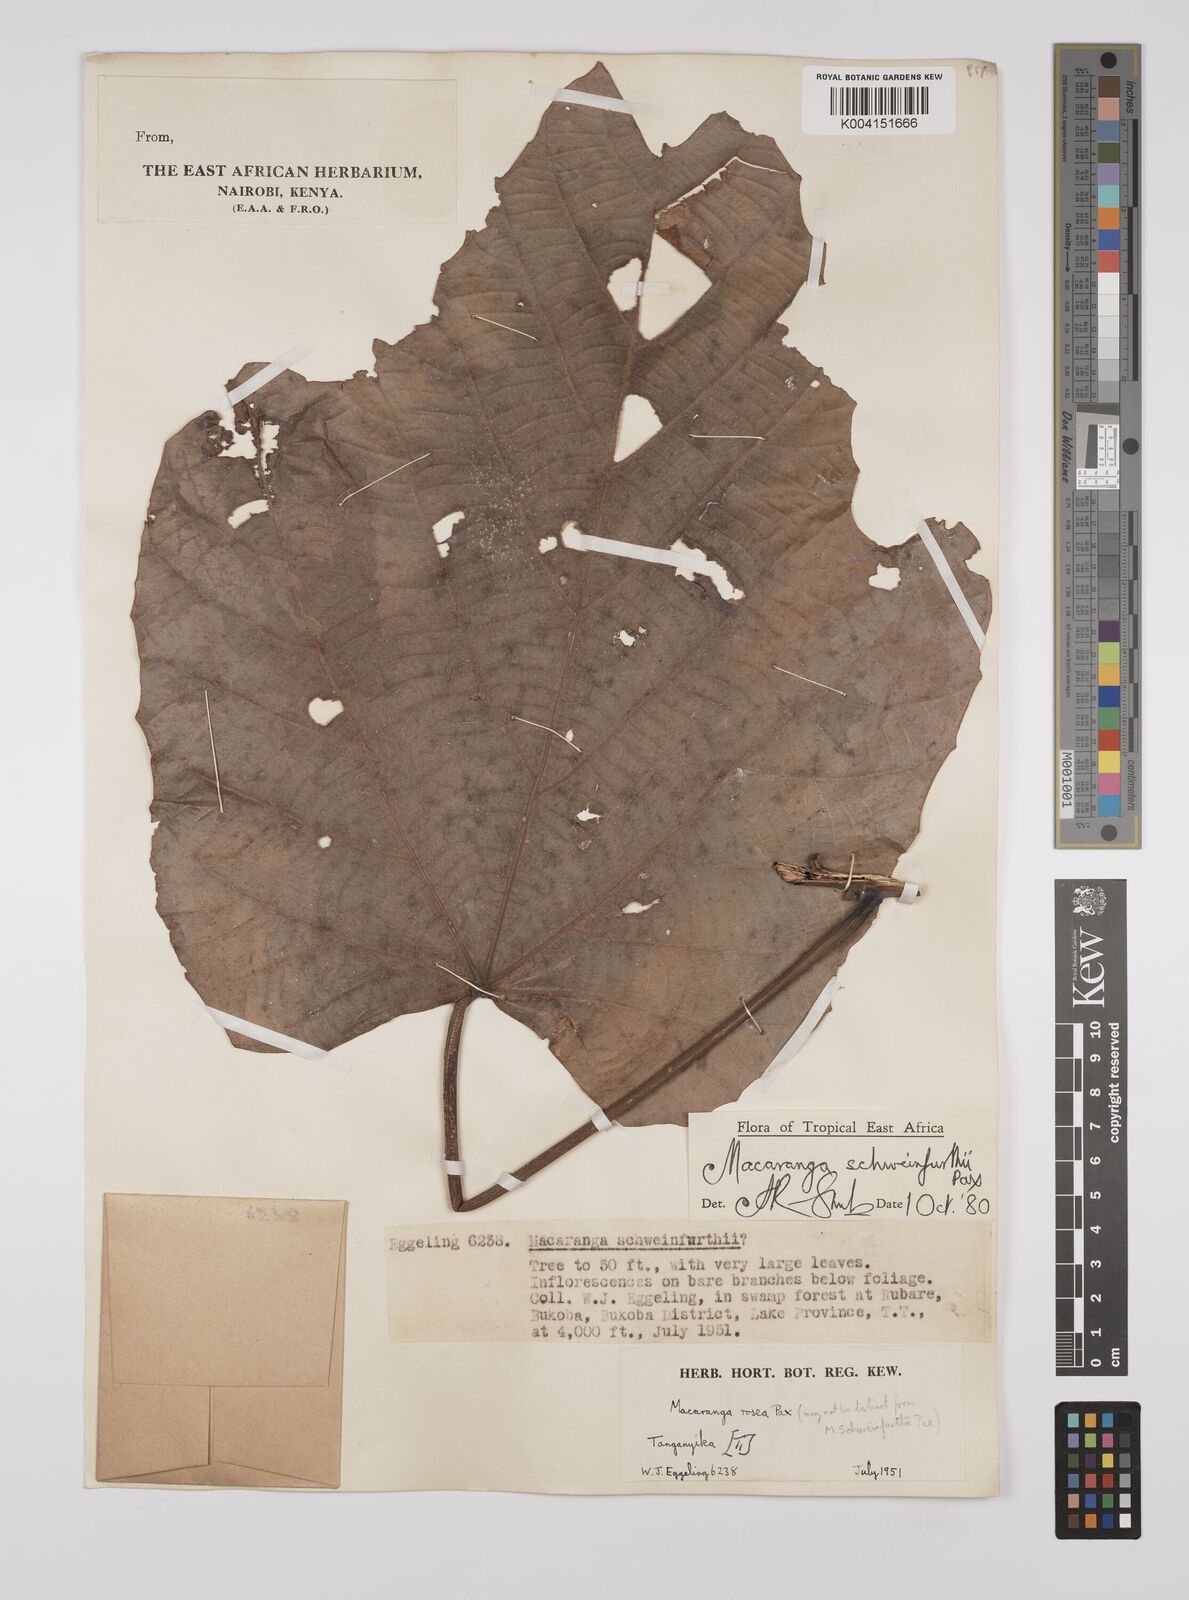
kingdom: Plantae
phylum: Tracheophyta
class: Magnoliopsida
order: Malpighiales
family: Euphorbiaceae
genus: Macaranga
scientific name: Macaranga schweinfurthii
